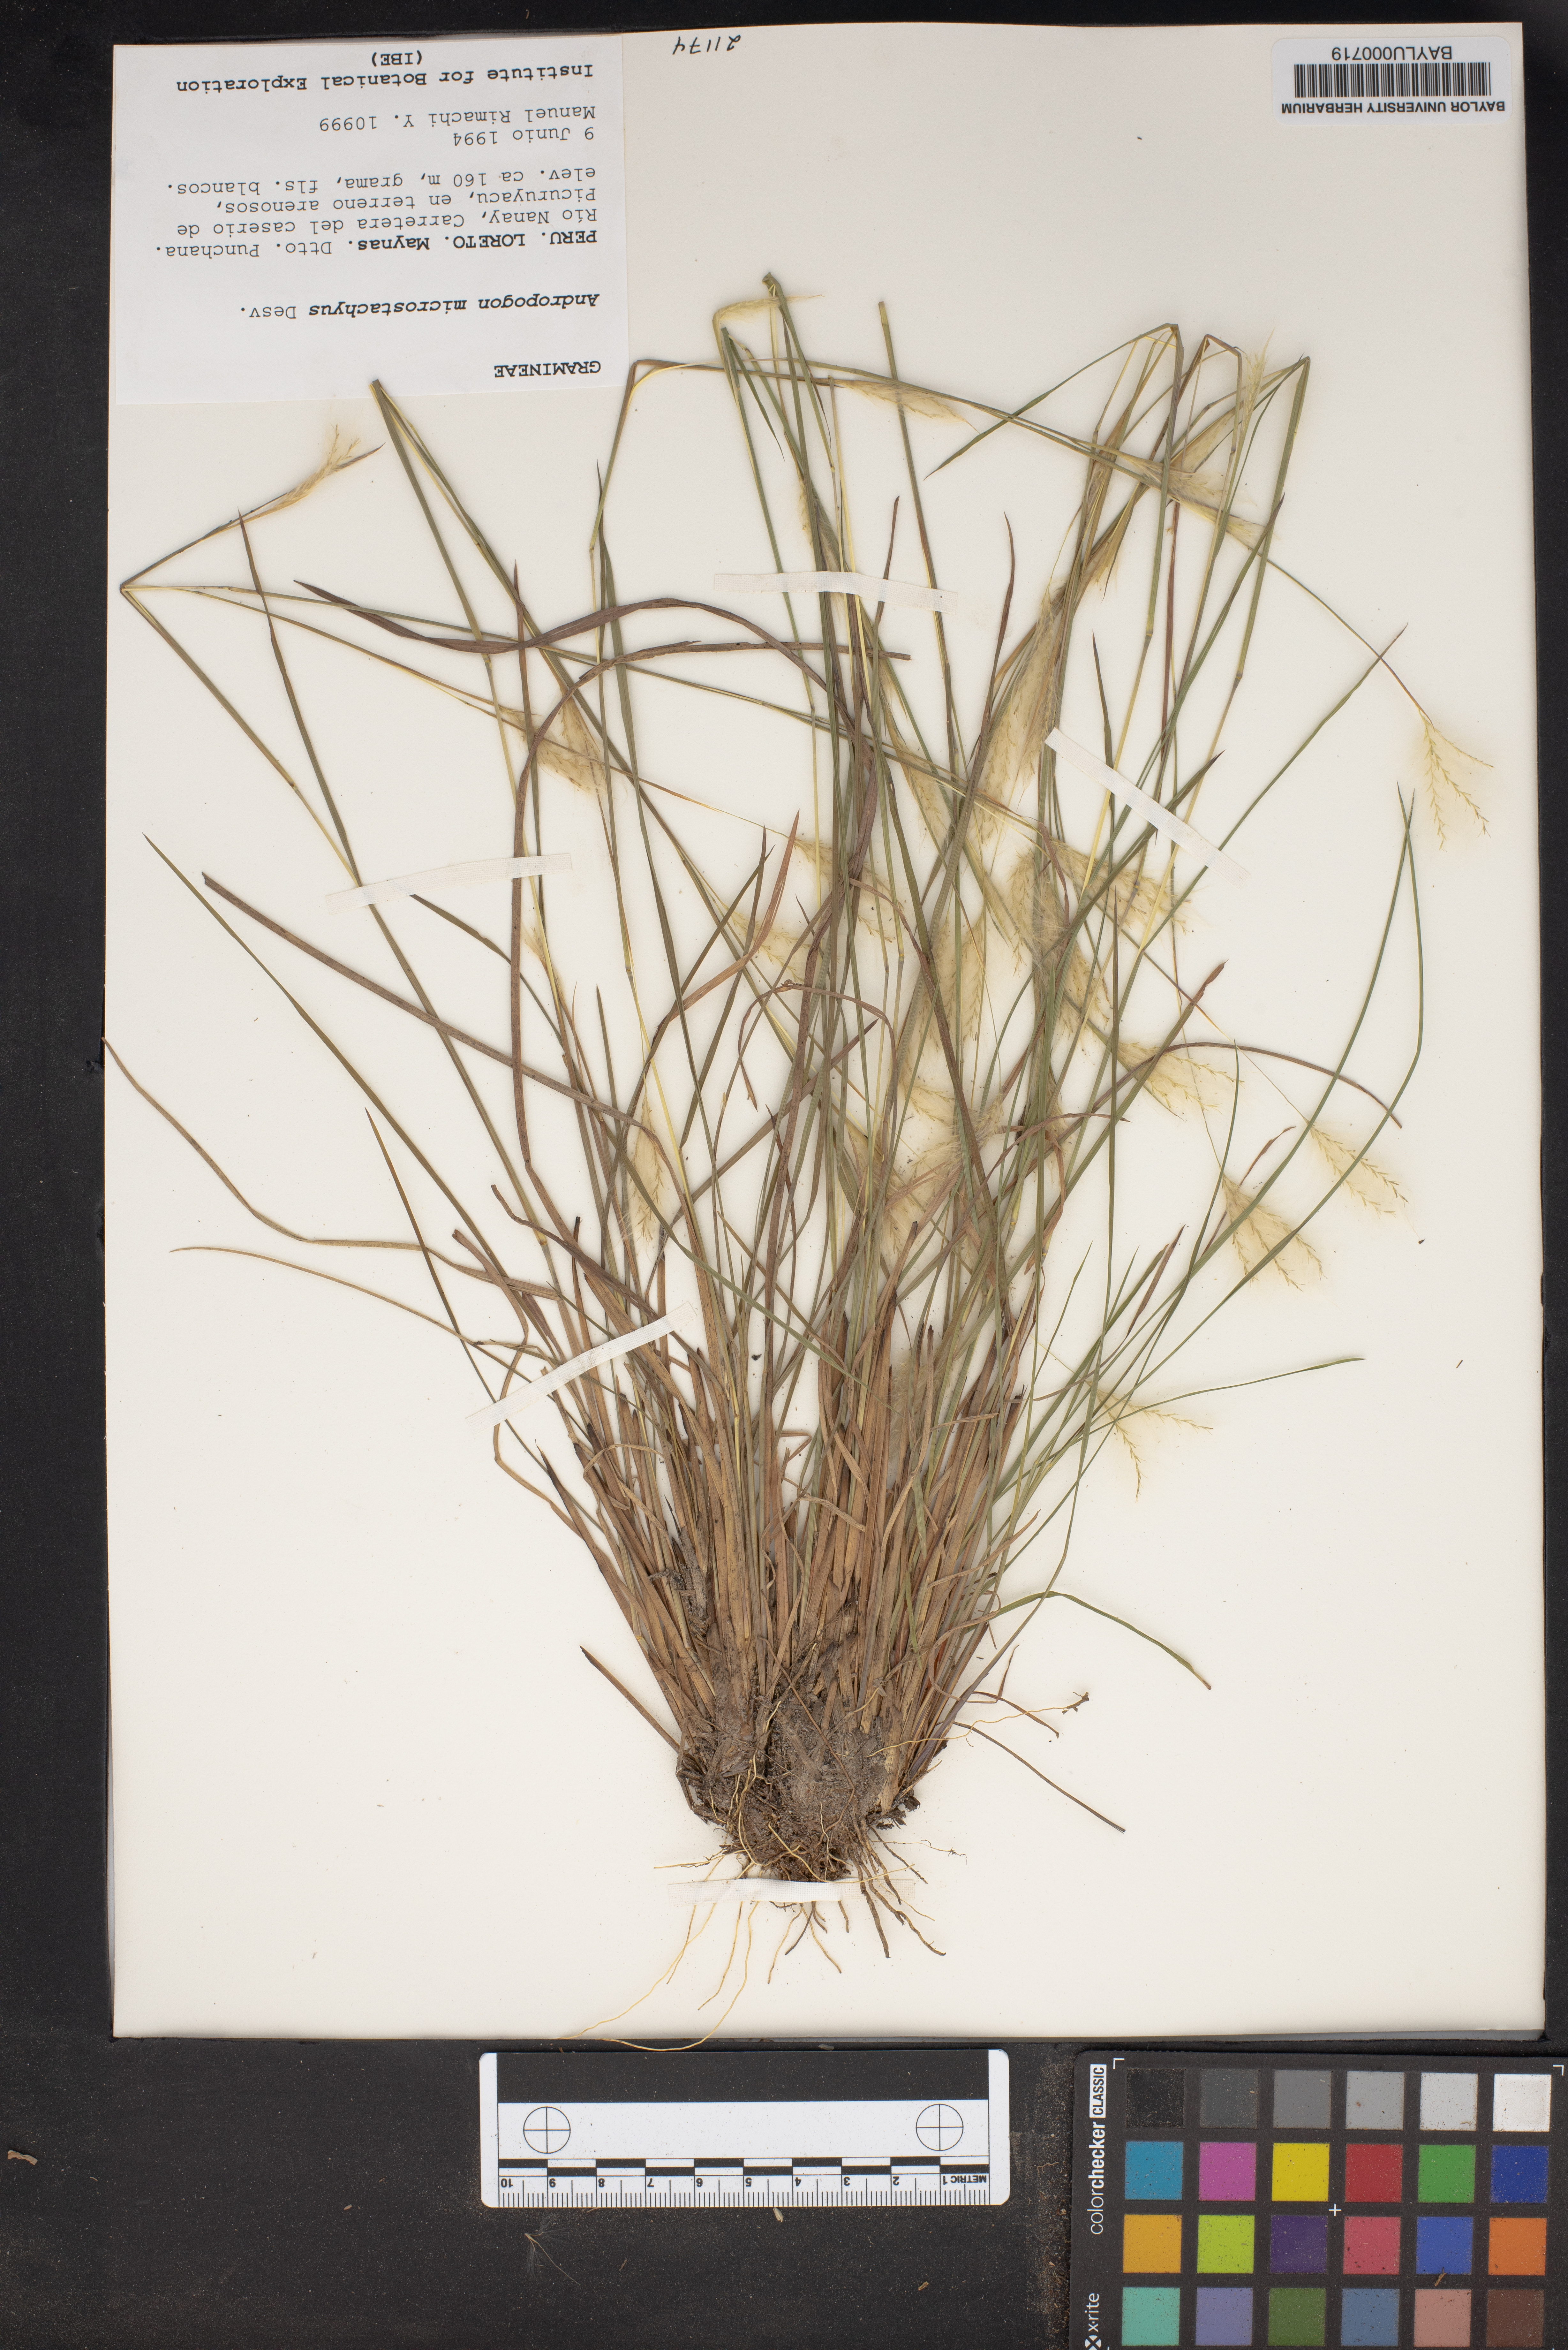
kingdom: Plantae
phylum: Tracheophyta
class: Liliopsida
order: Poales
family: Poaceae
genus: Schizachyrium
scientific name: Schizachyrium microstachyum
